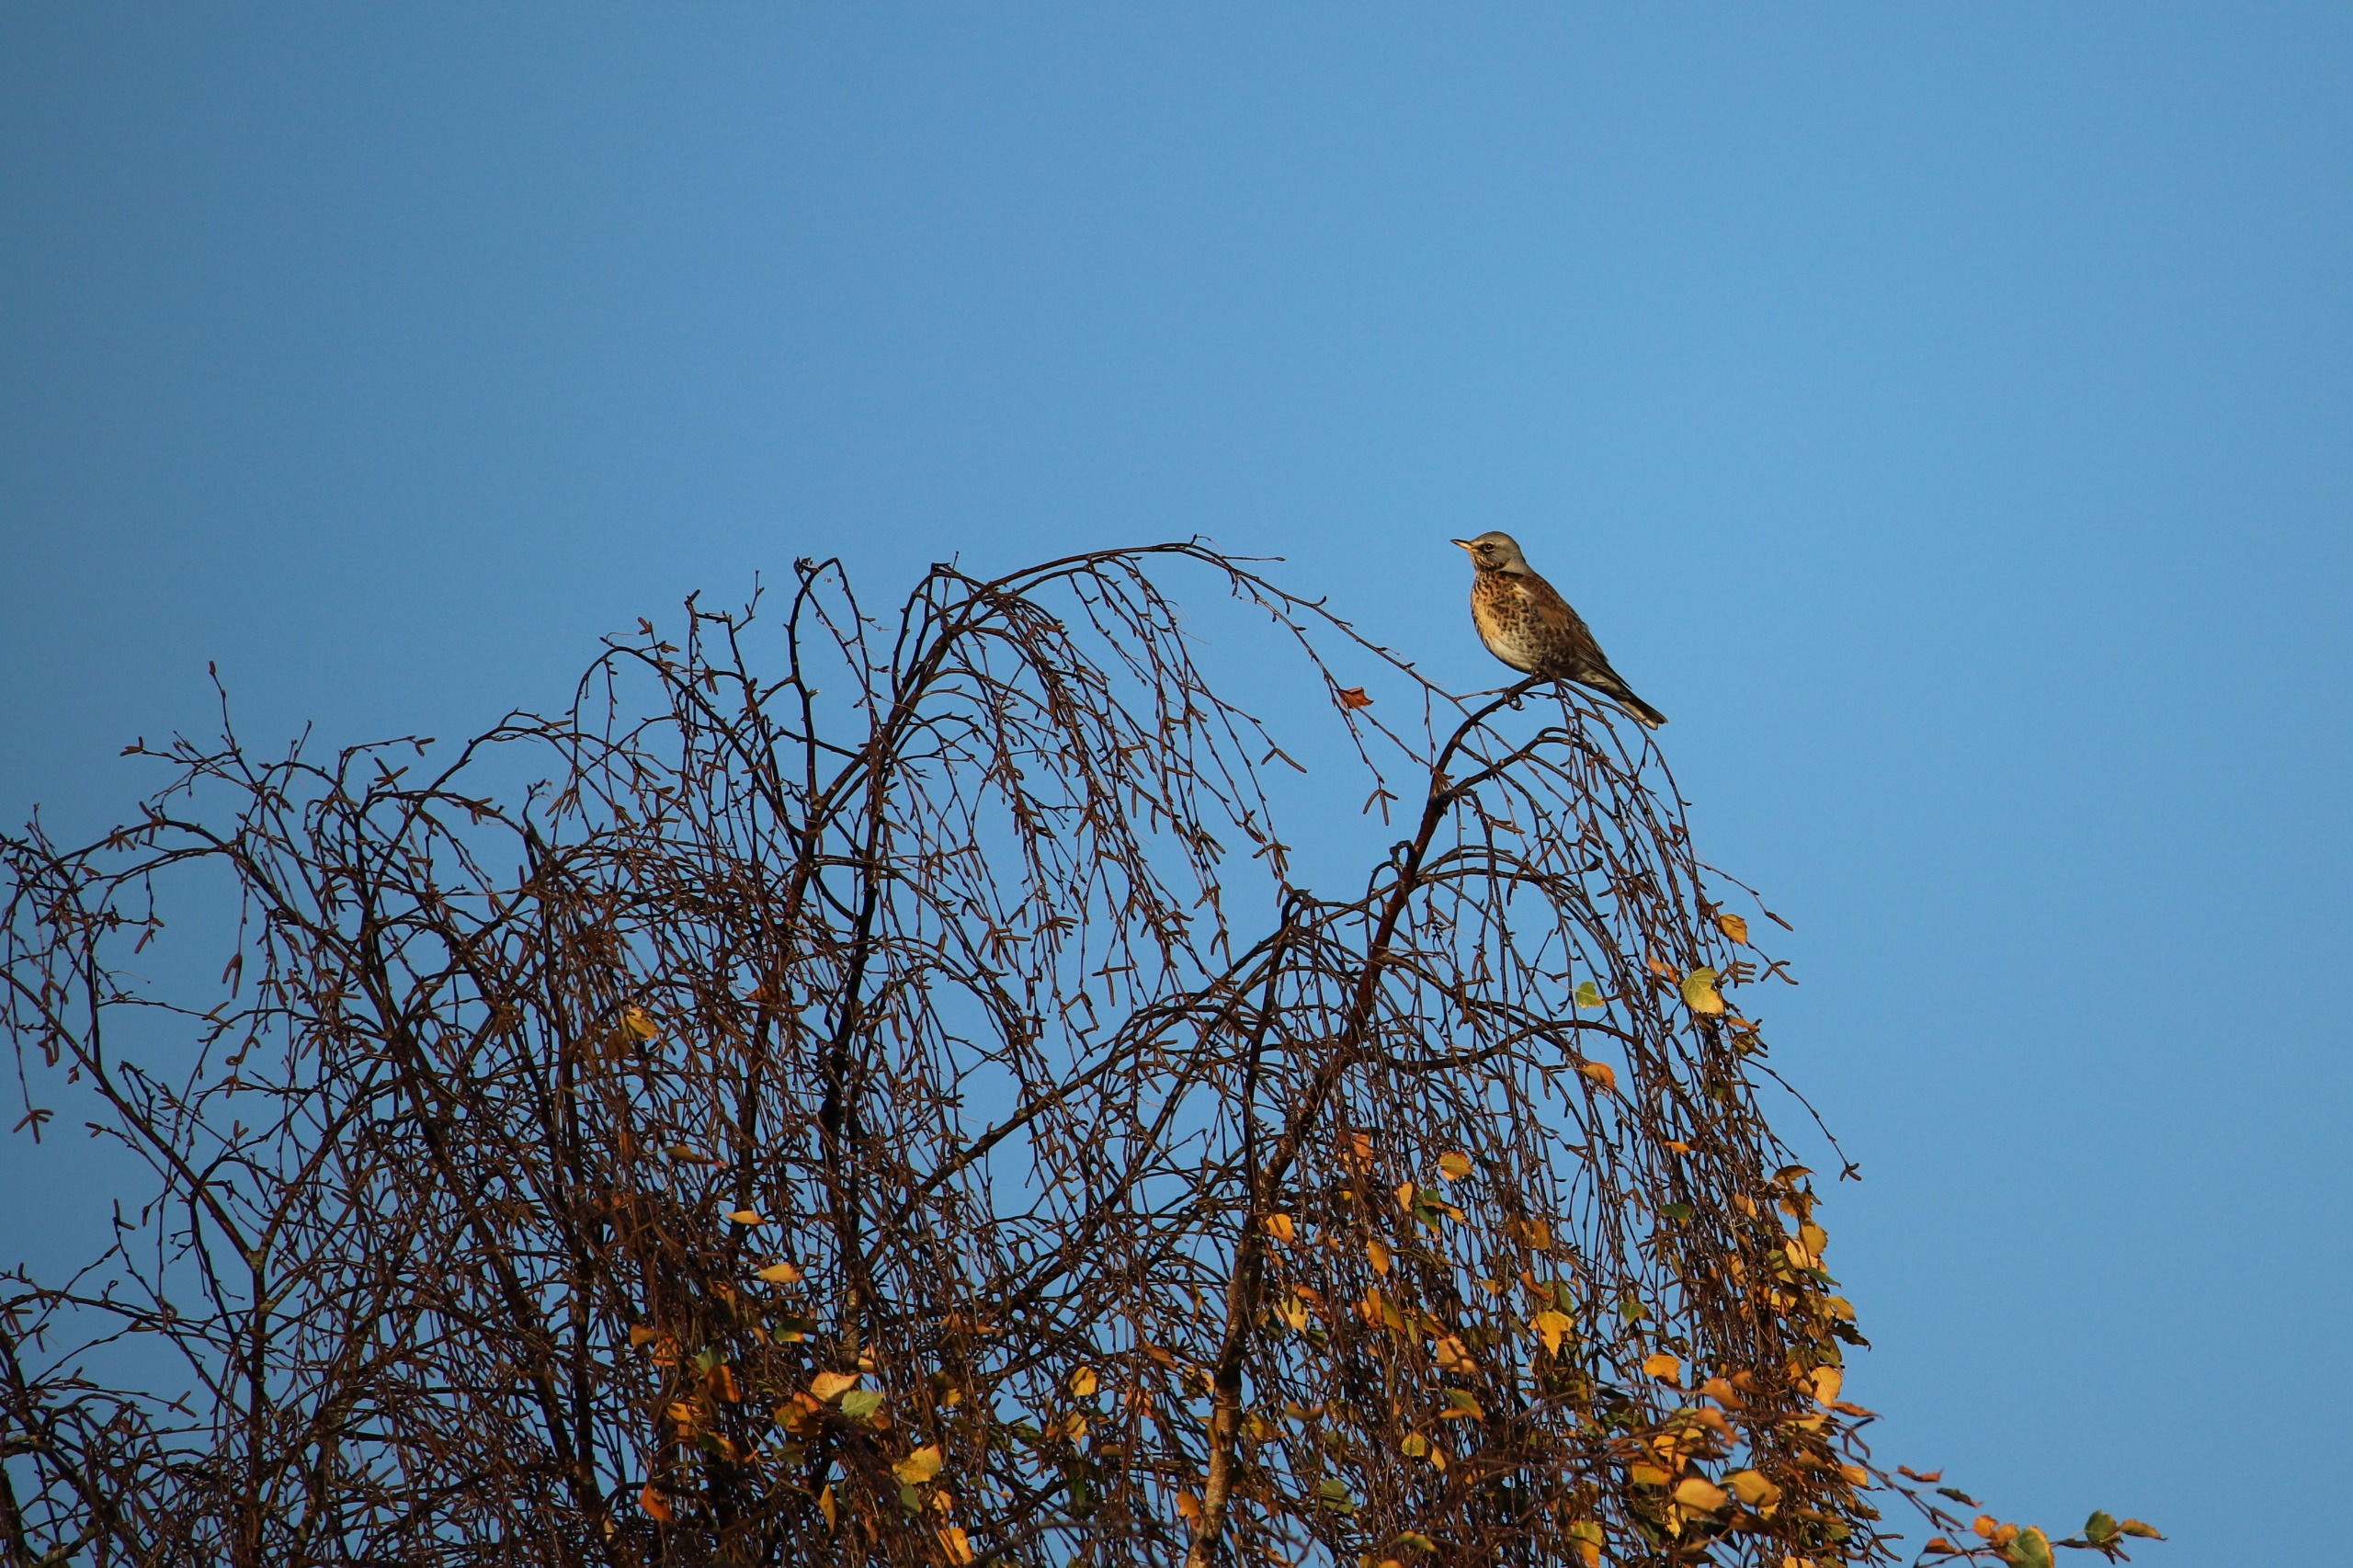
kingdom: Animalia
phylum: Chordata
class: Aves
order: Passeriformes
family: Turdidae
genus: Turdus
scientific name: Turdus pilaris
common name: Sjagger
